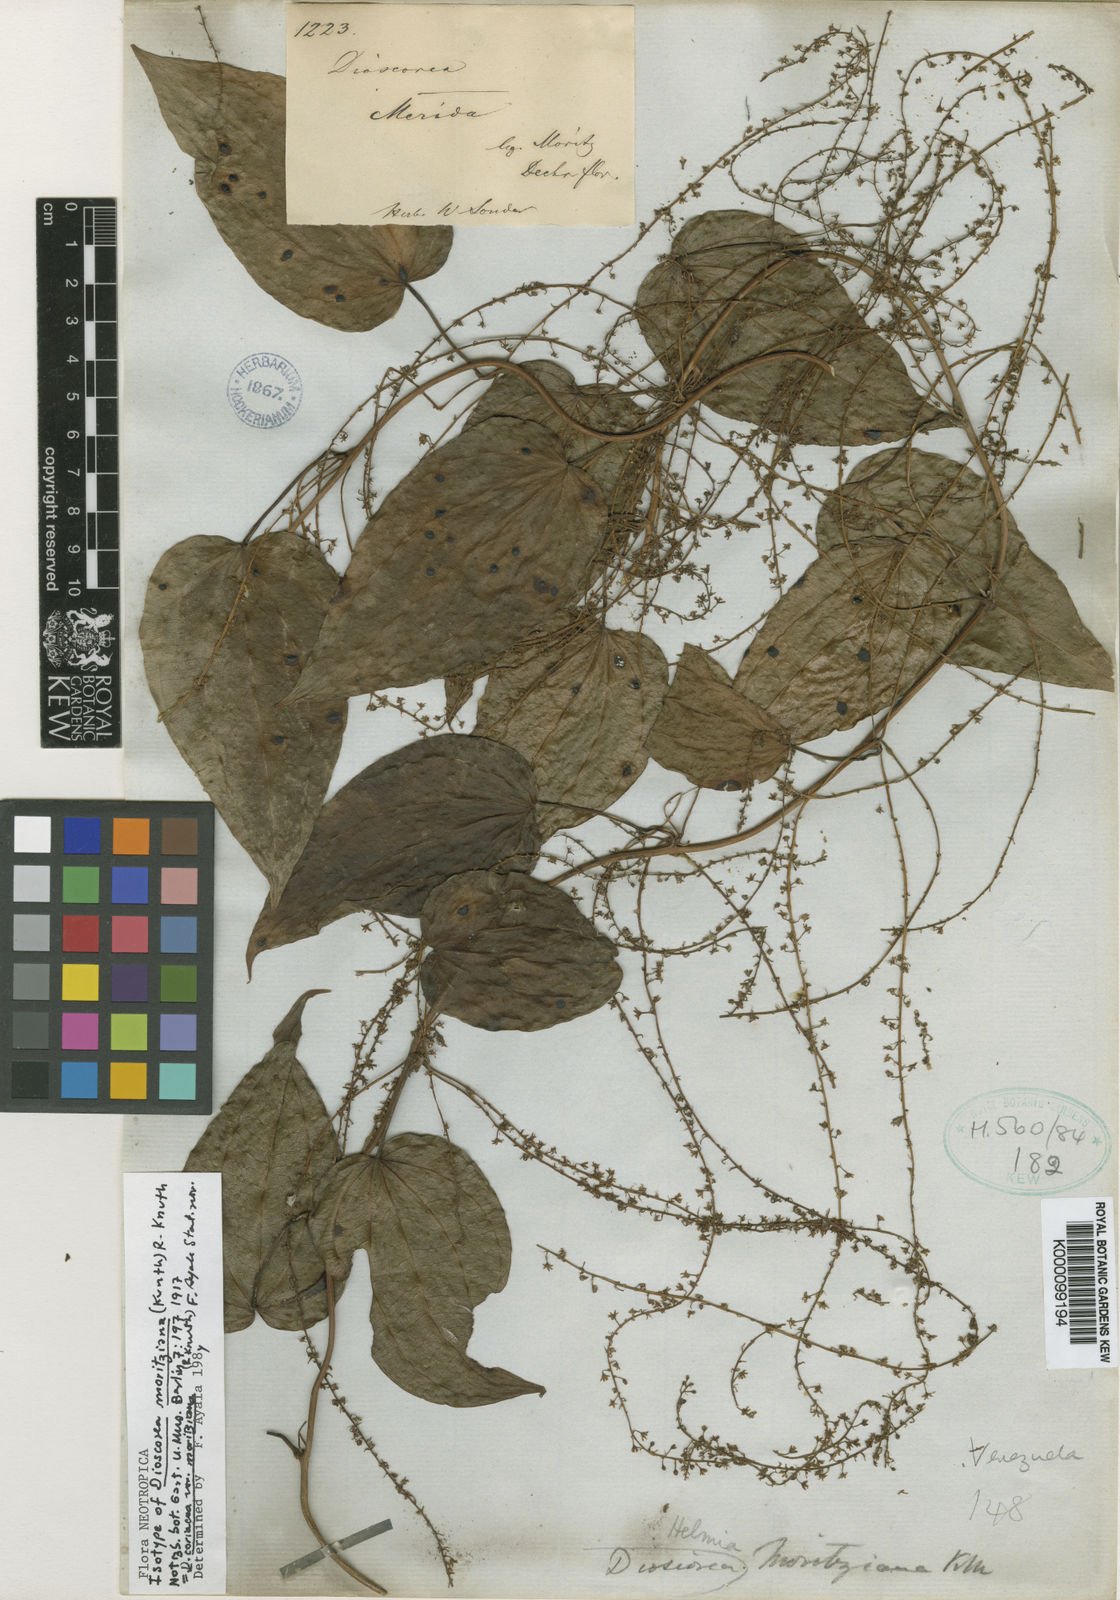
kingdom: Plantae
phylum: Tracheophyta
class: Liliopsida
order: Dioscoreales
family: Dioscoreaceae
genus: Dioscorea
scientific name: Dioscorea moritziana
